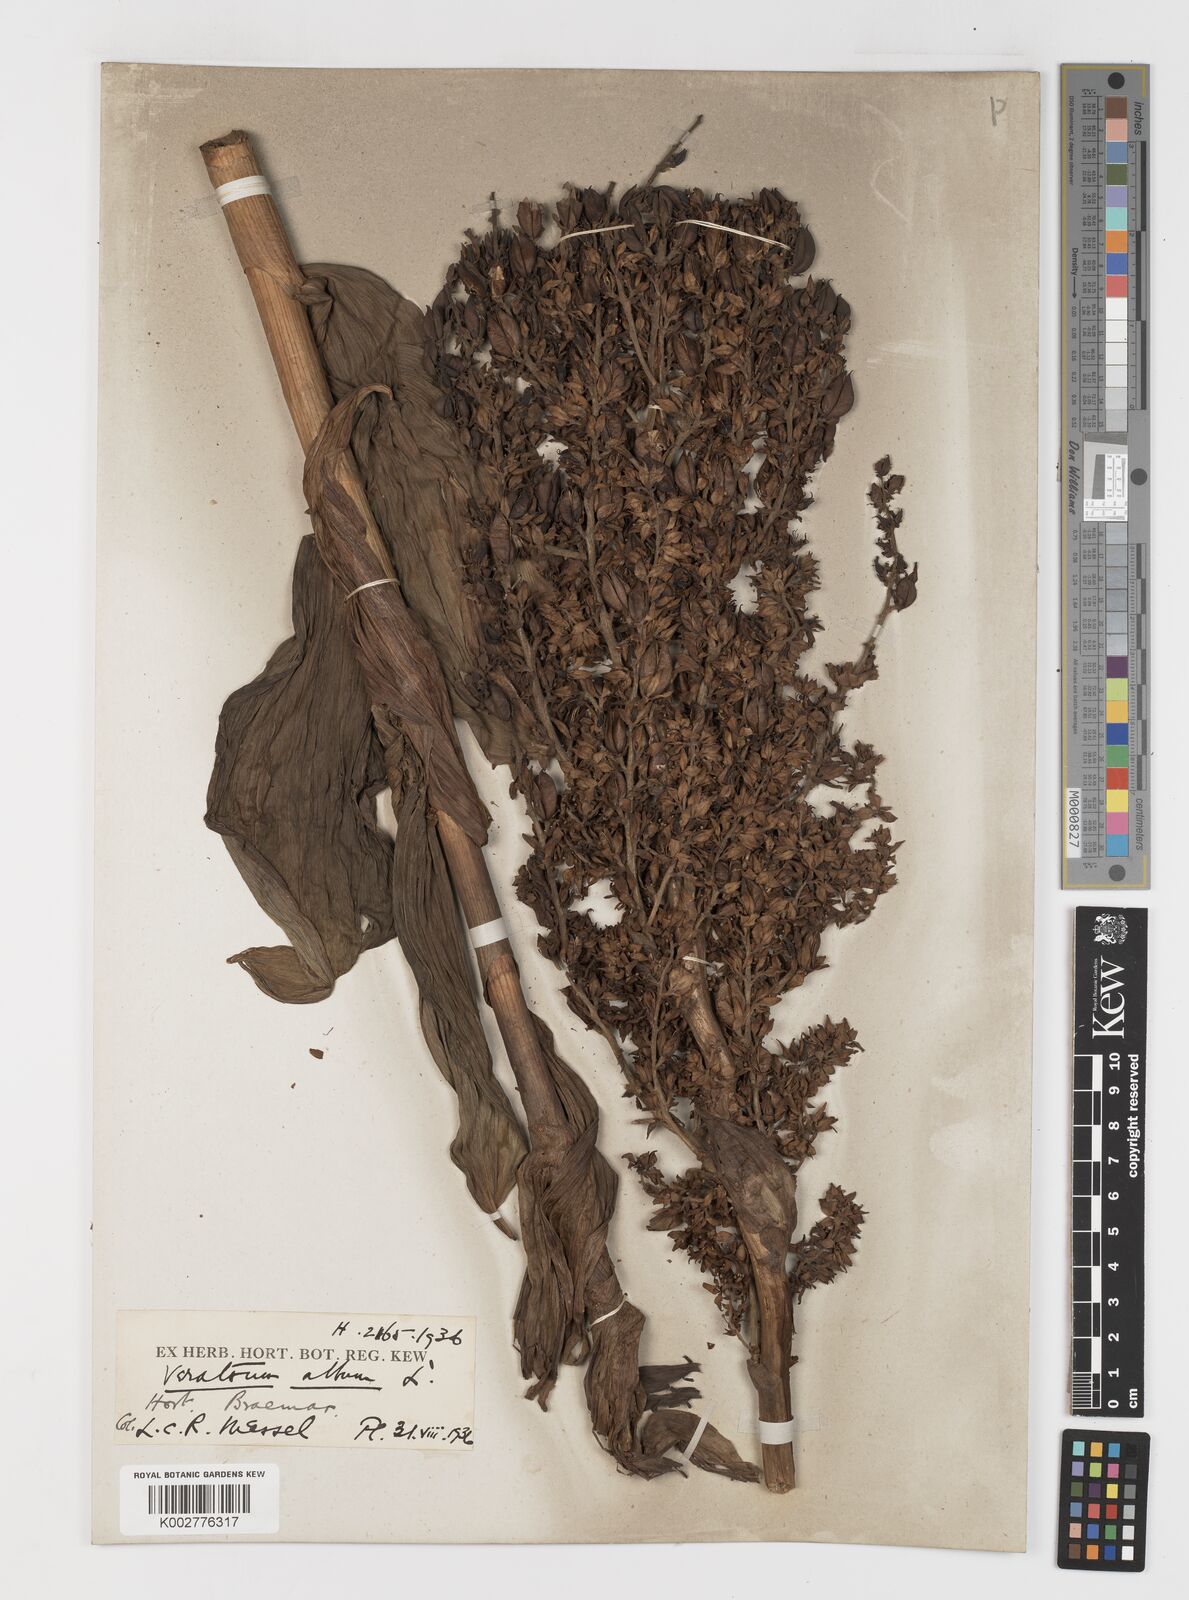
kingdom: Plantae
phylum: Tracheophyta
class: Liliopsida
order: Liliales
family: Melanthiaceae
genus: Veratrum
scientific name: Veratrum album
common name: White veratrum
